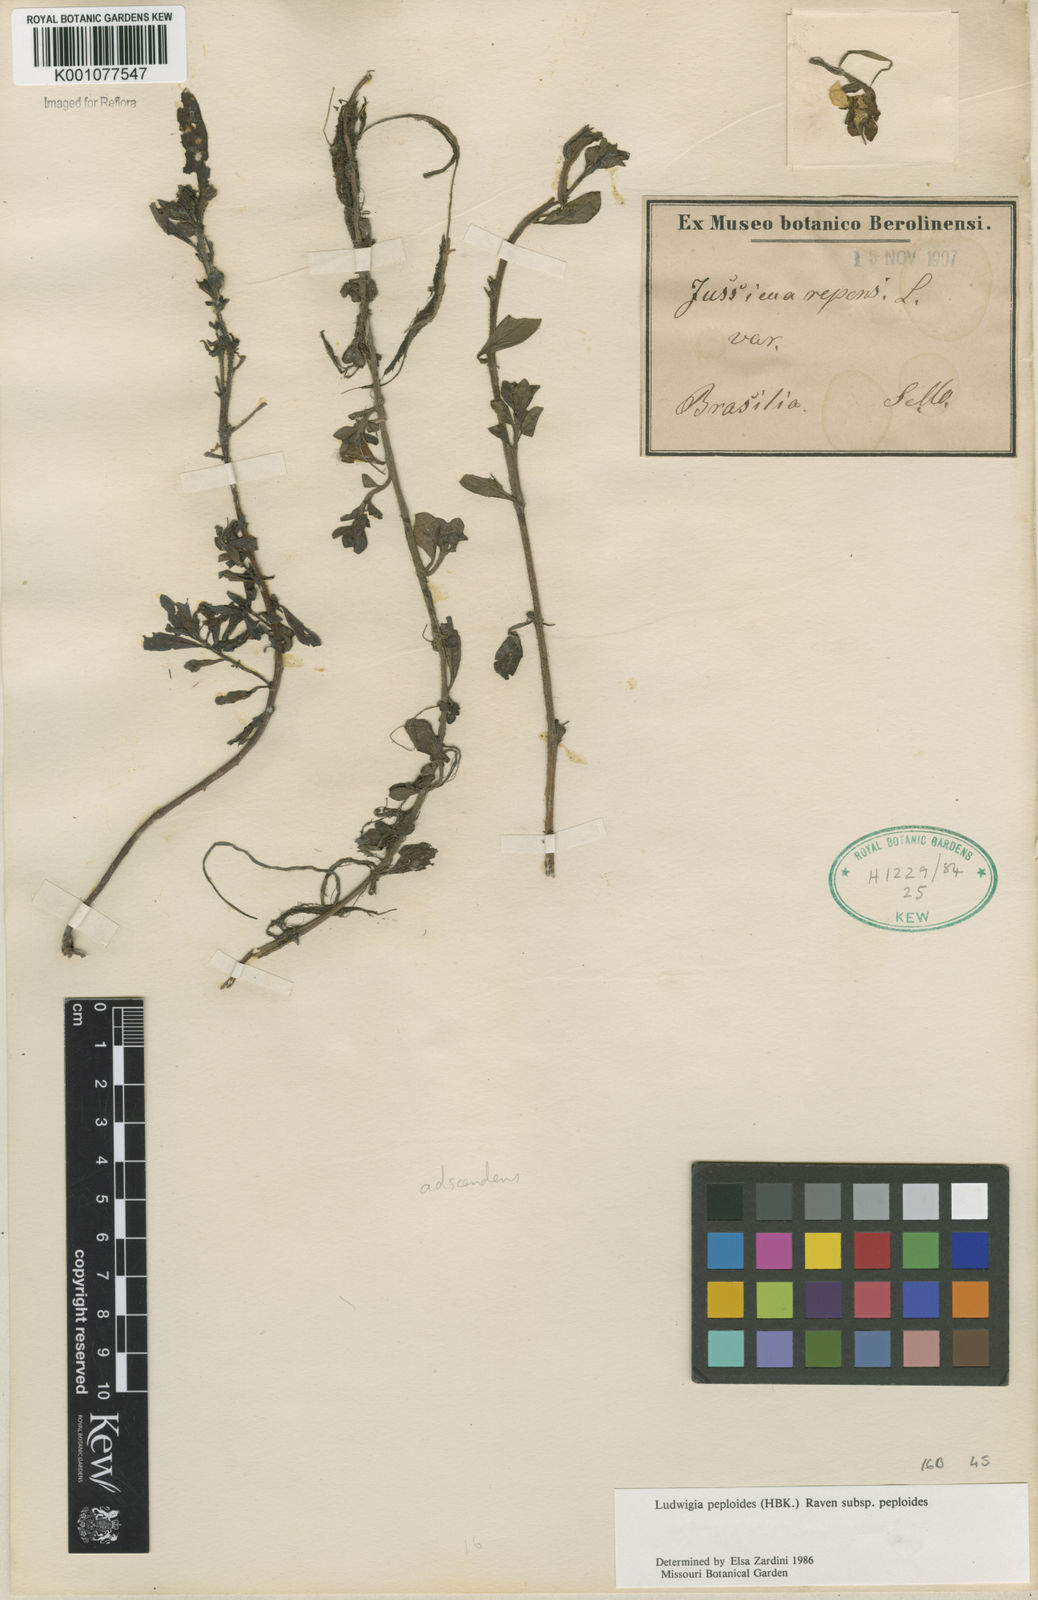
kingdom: Plantae
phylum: Tracheophyta
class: Magnoliopsida
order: Myrtales
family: Onagraceae
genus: Ludwigia
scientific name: Ludwigia peploides
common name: Floating primrose-willow
